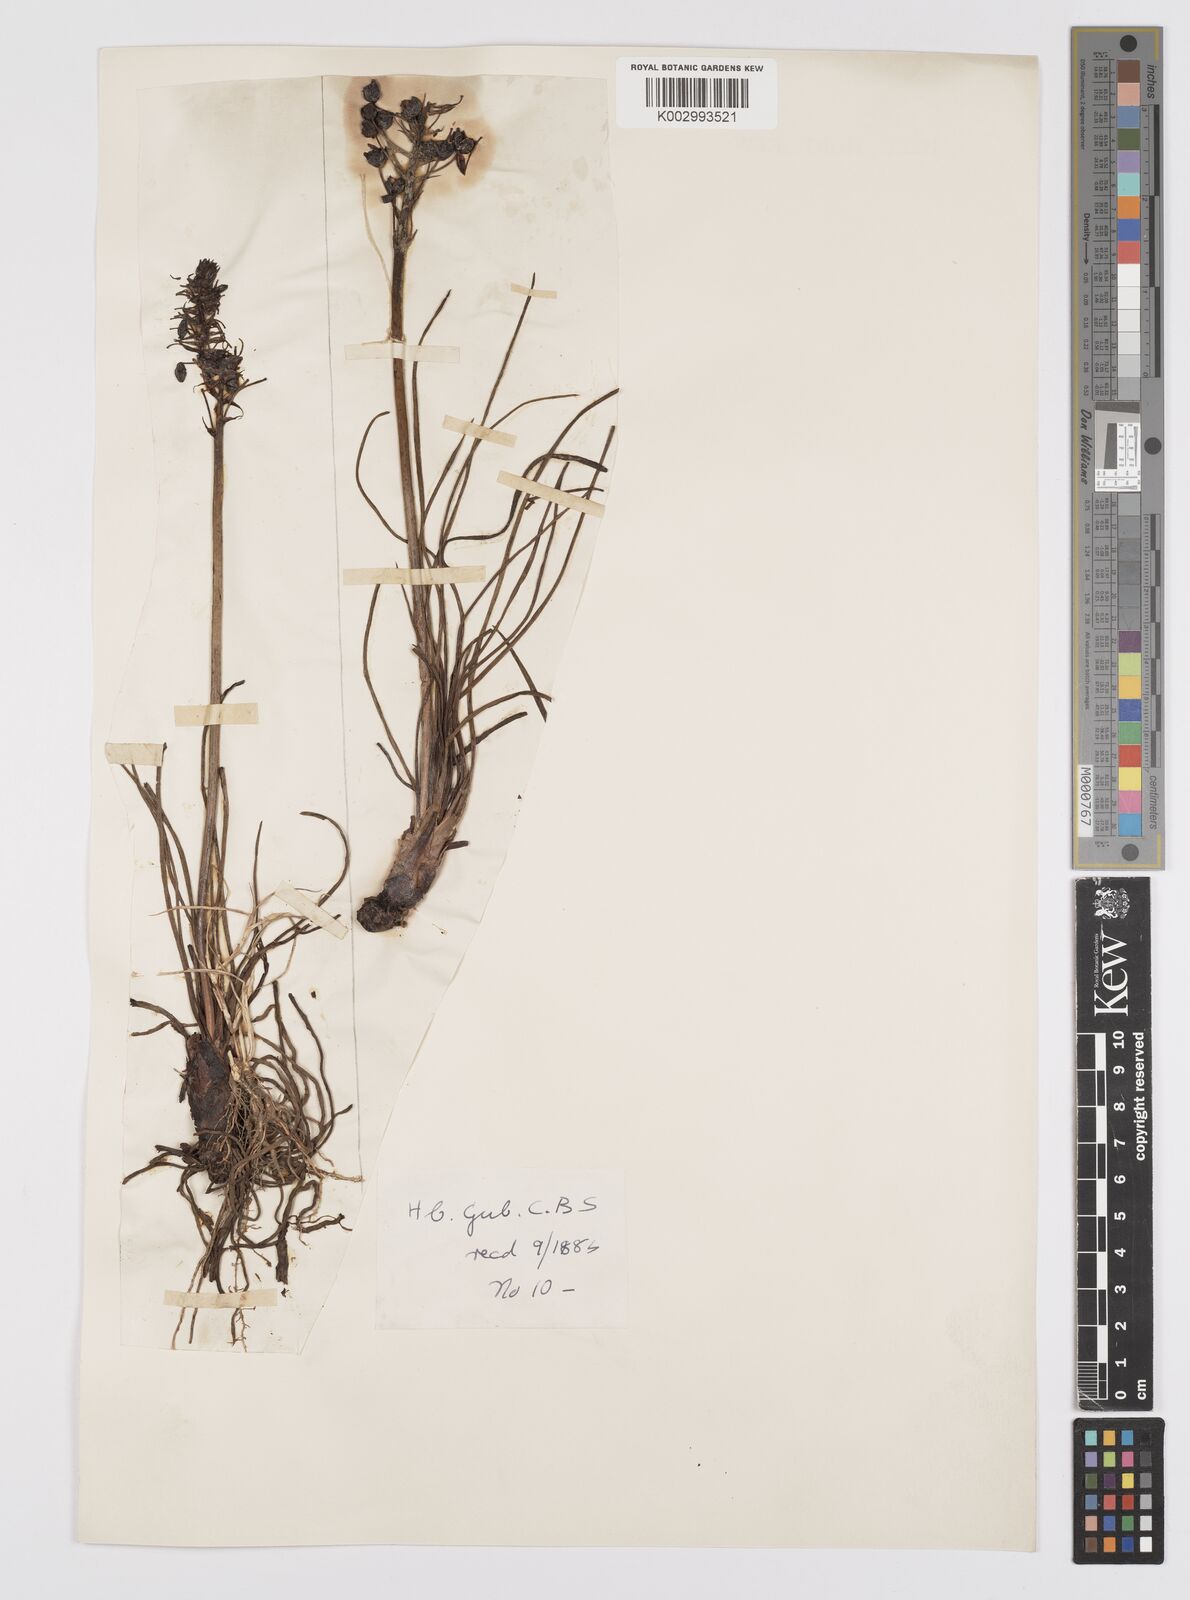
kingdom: Plantae
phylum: Tracheophyta
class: Liliopsida
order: Asparagales
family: Asphodelaceae
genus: Bulbine
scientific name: Bulbine asphodeloides
